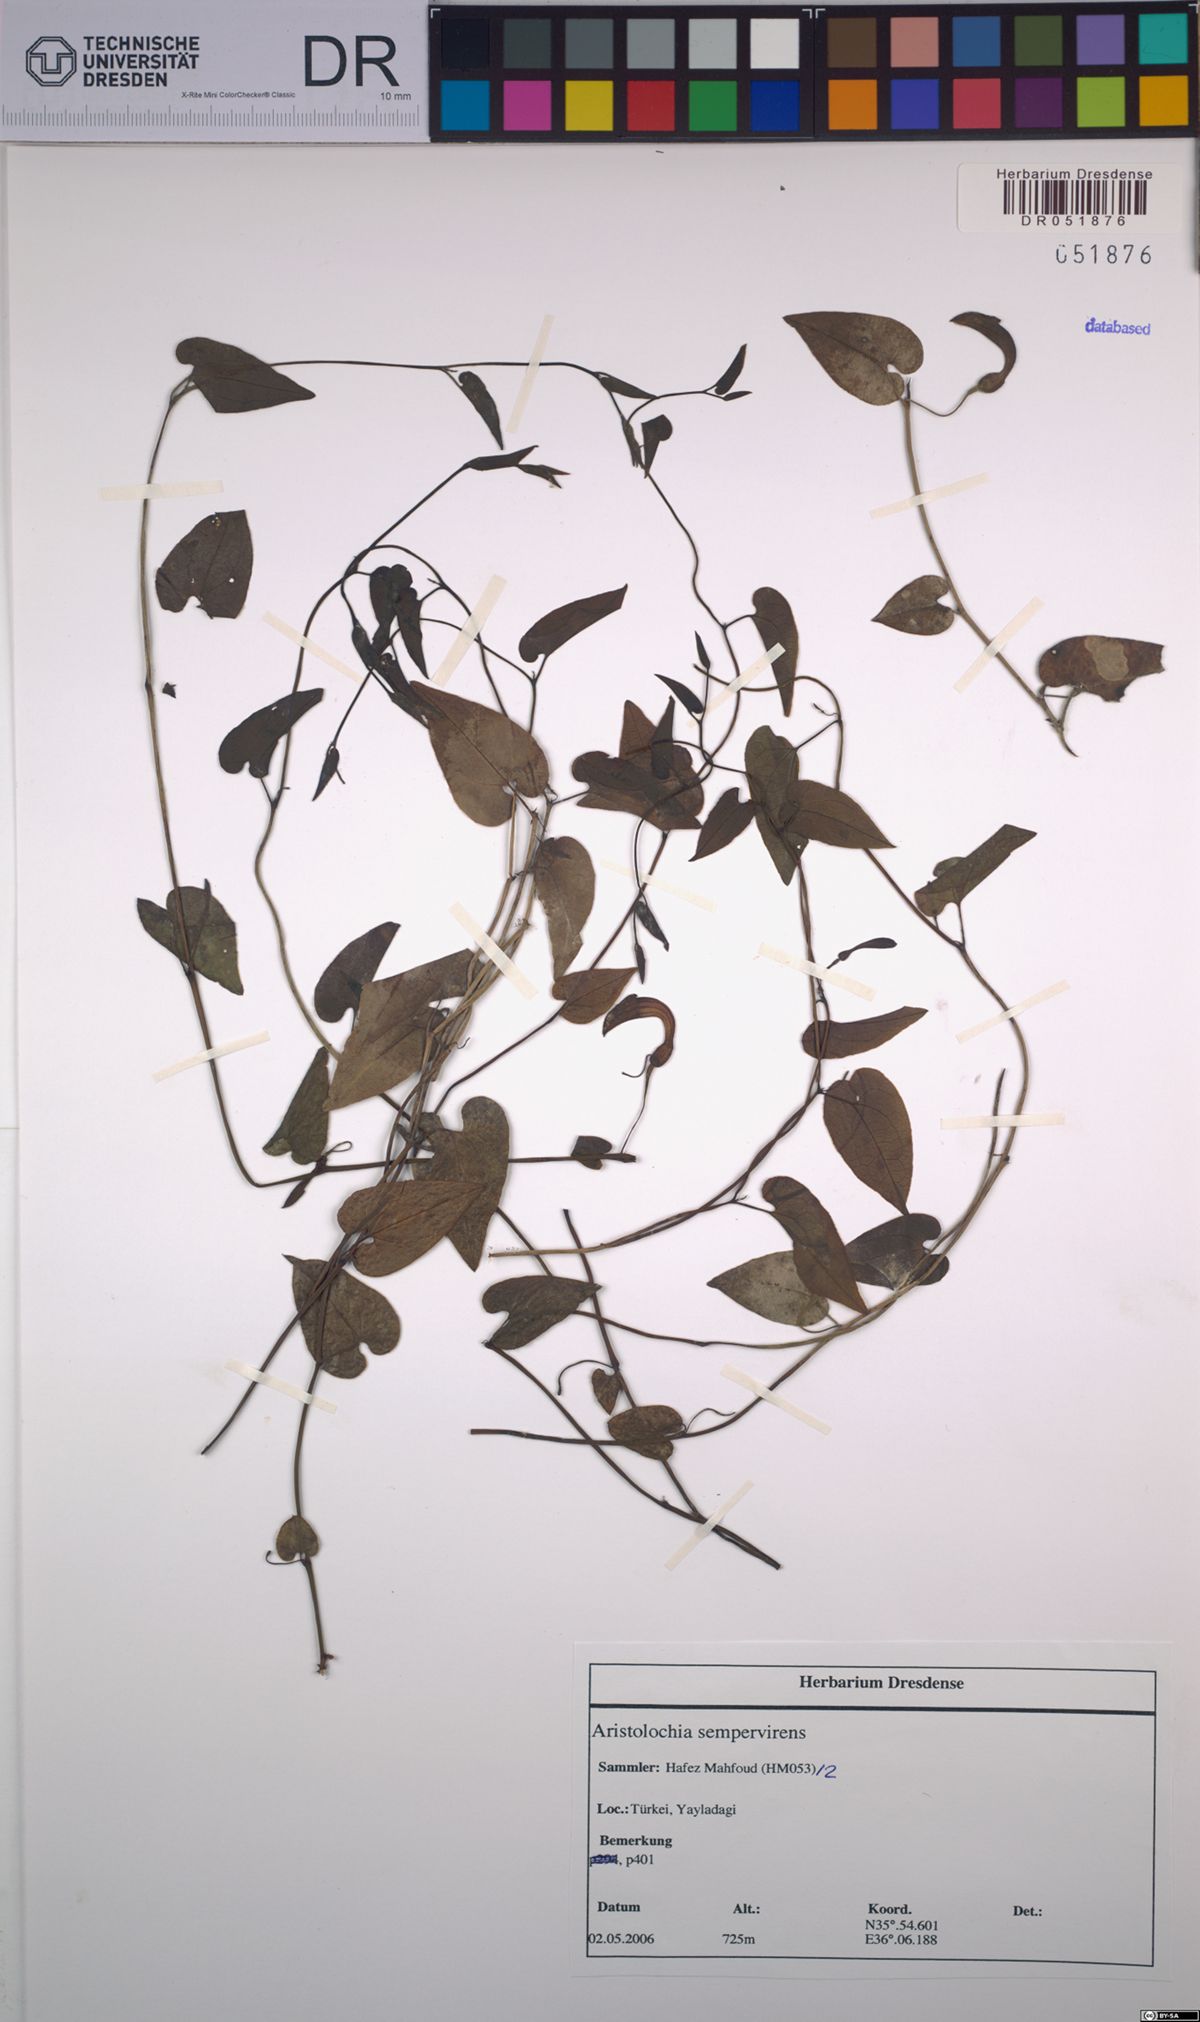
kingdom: Plantae
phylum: Tracheophyta
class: Magnoliopsida
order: Piperales
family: Aristolochiaceae
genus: Aristolochia
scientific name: Aristolochia sempervirens
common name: Long birthwort
